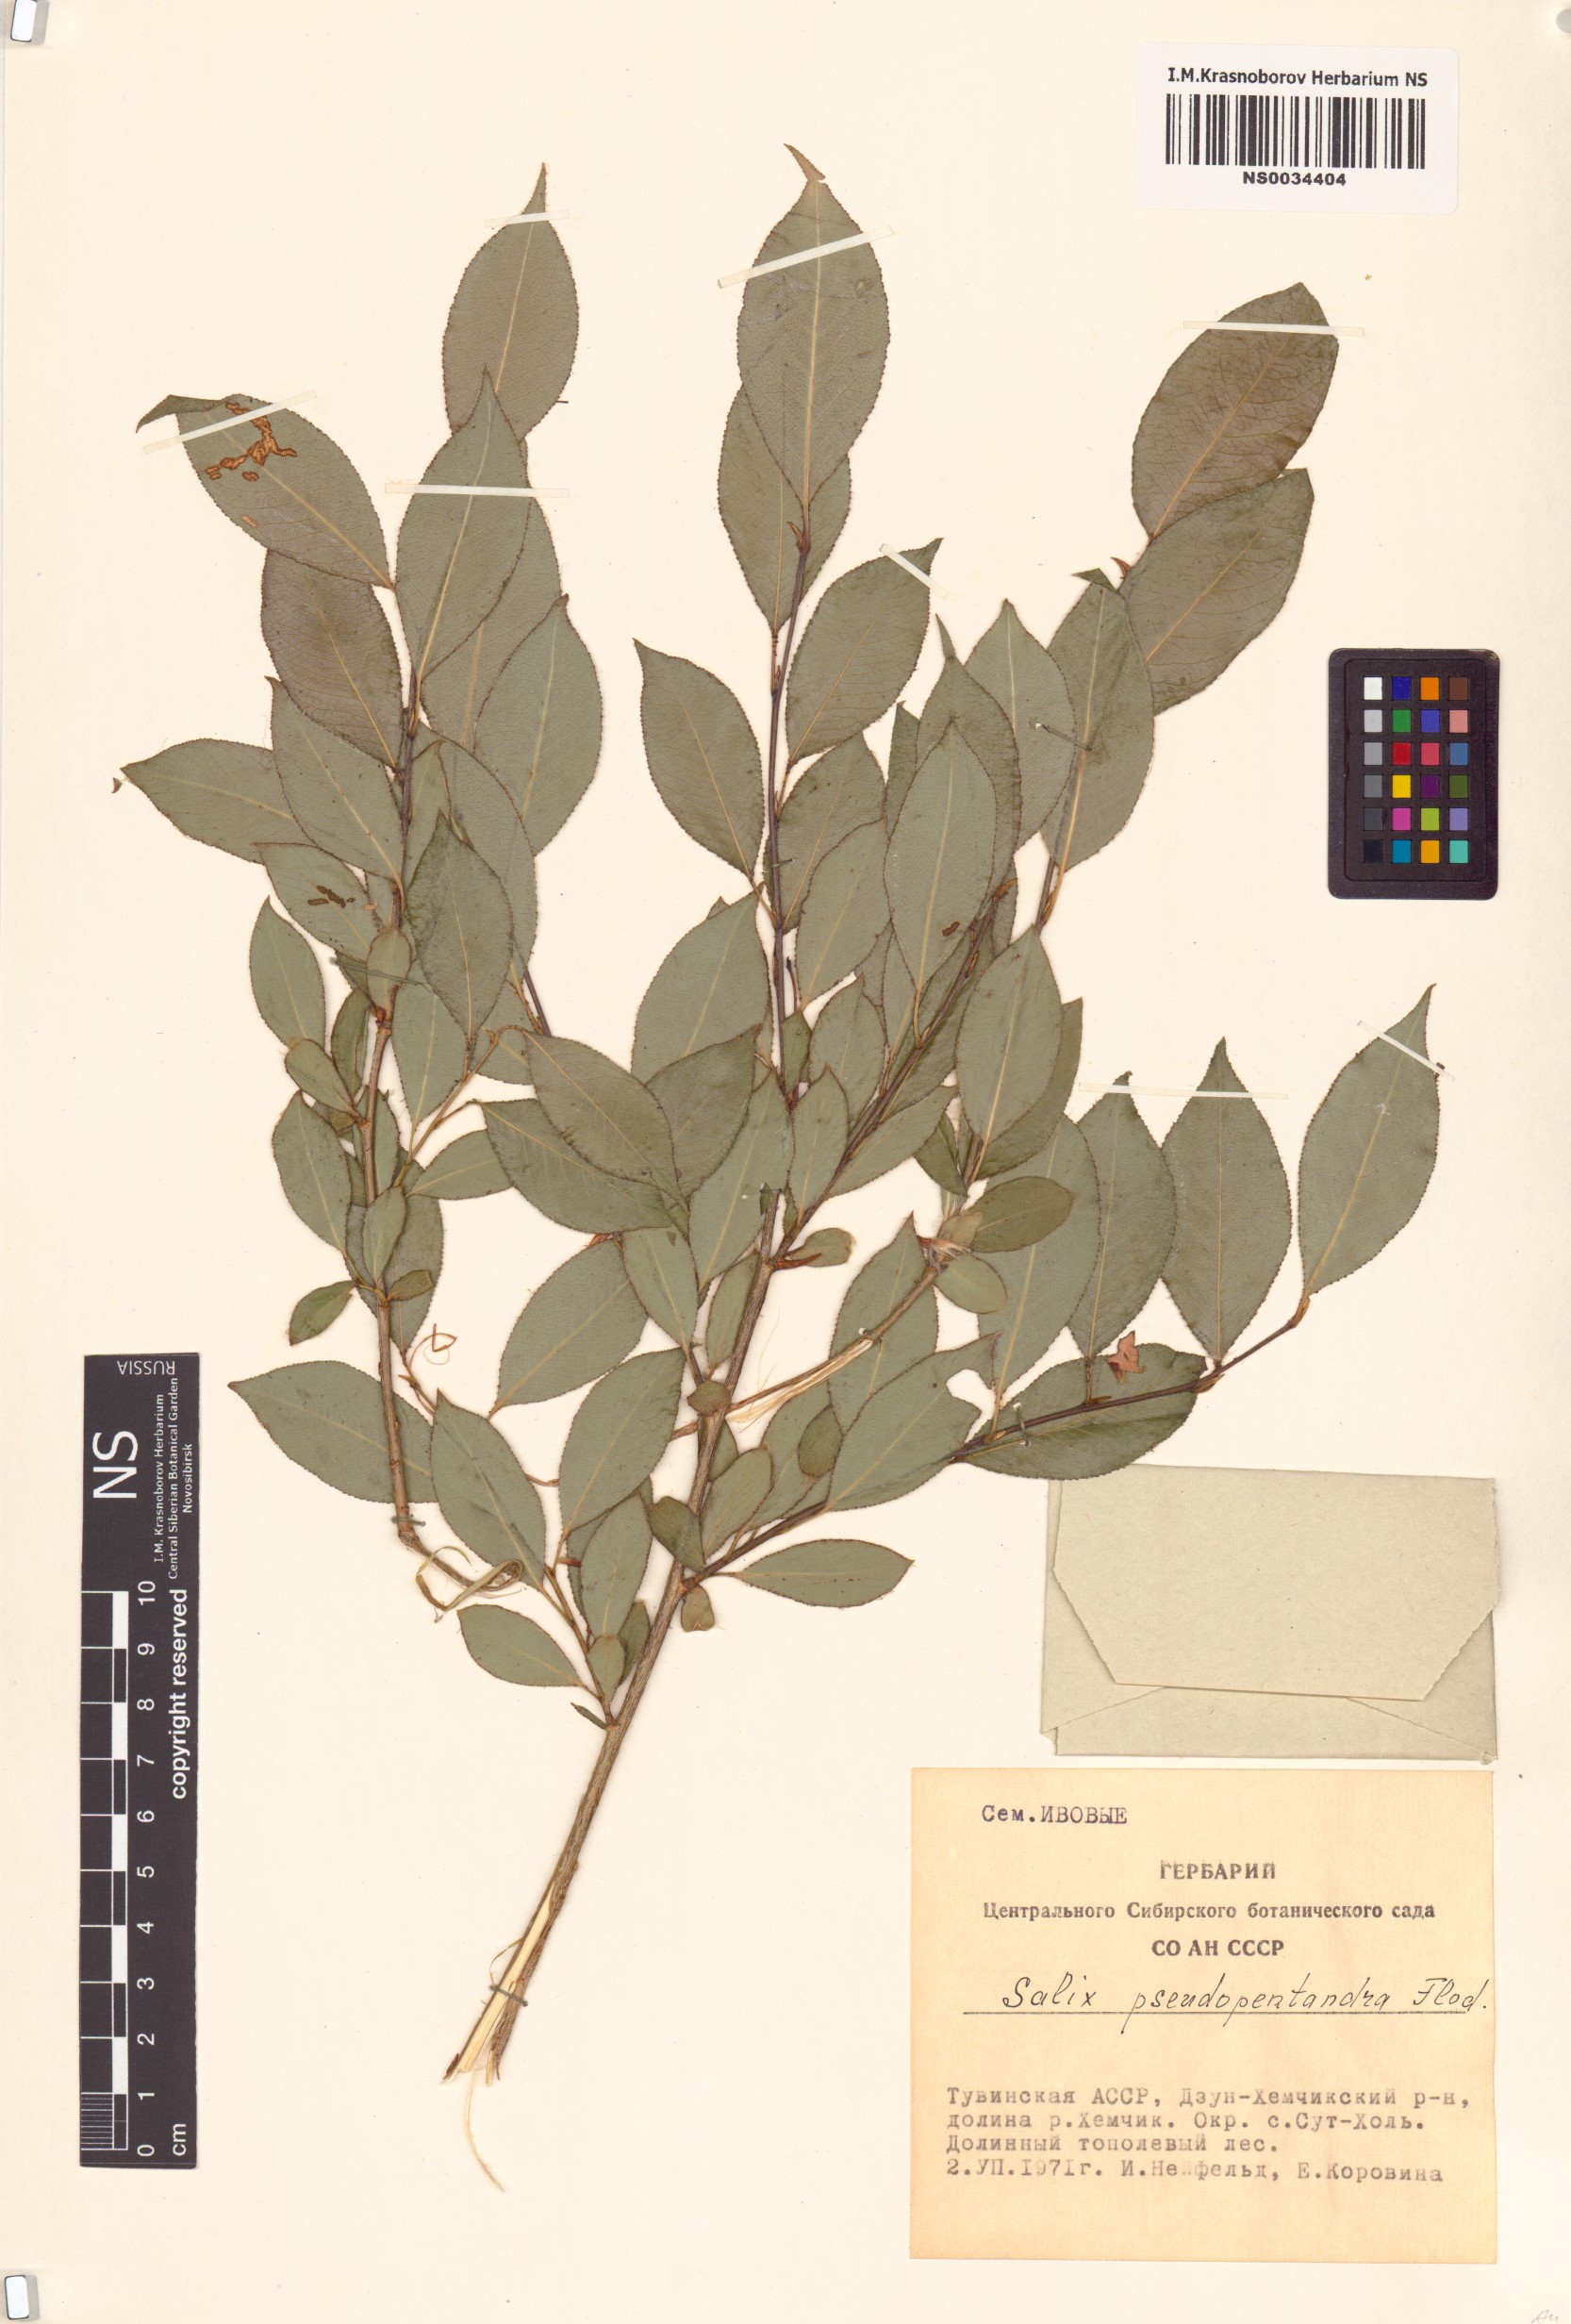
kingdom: Plantae
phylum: Tracheophyta
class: Magnoliopsida
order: Malpighiales
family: Salicaceae
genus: Salix
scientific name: Salix pseudopentandra
